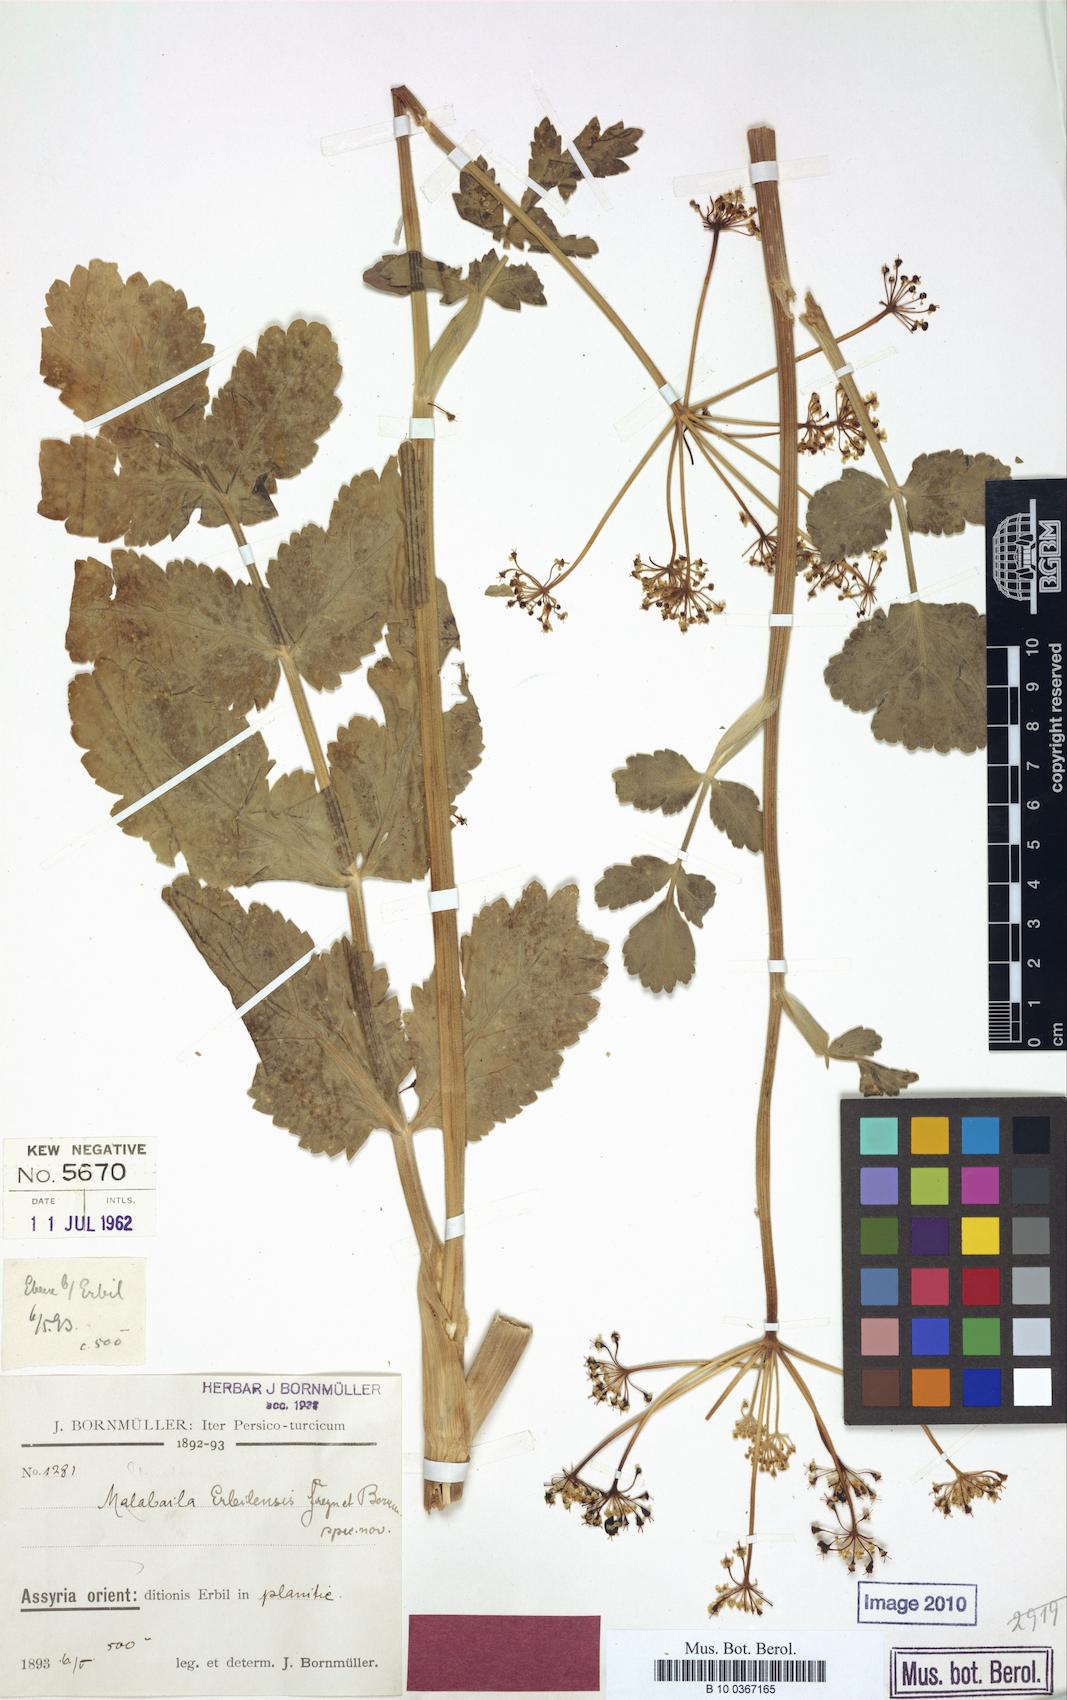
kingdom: Plantae
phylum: Tracheophyta
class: Magnoliopsida
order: Apiales
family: Apiaceae
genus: Leiotulus
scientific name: Leiotulus secacul
